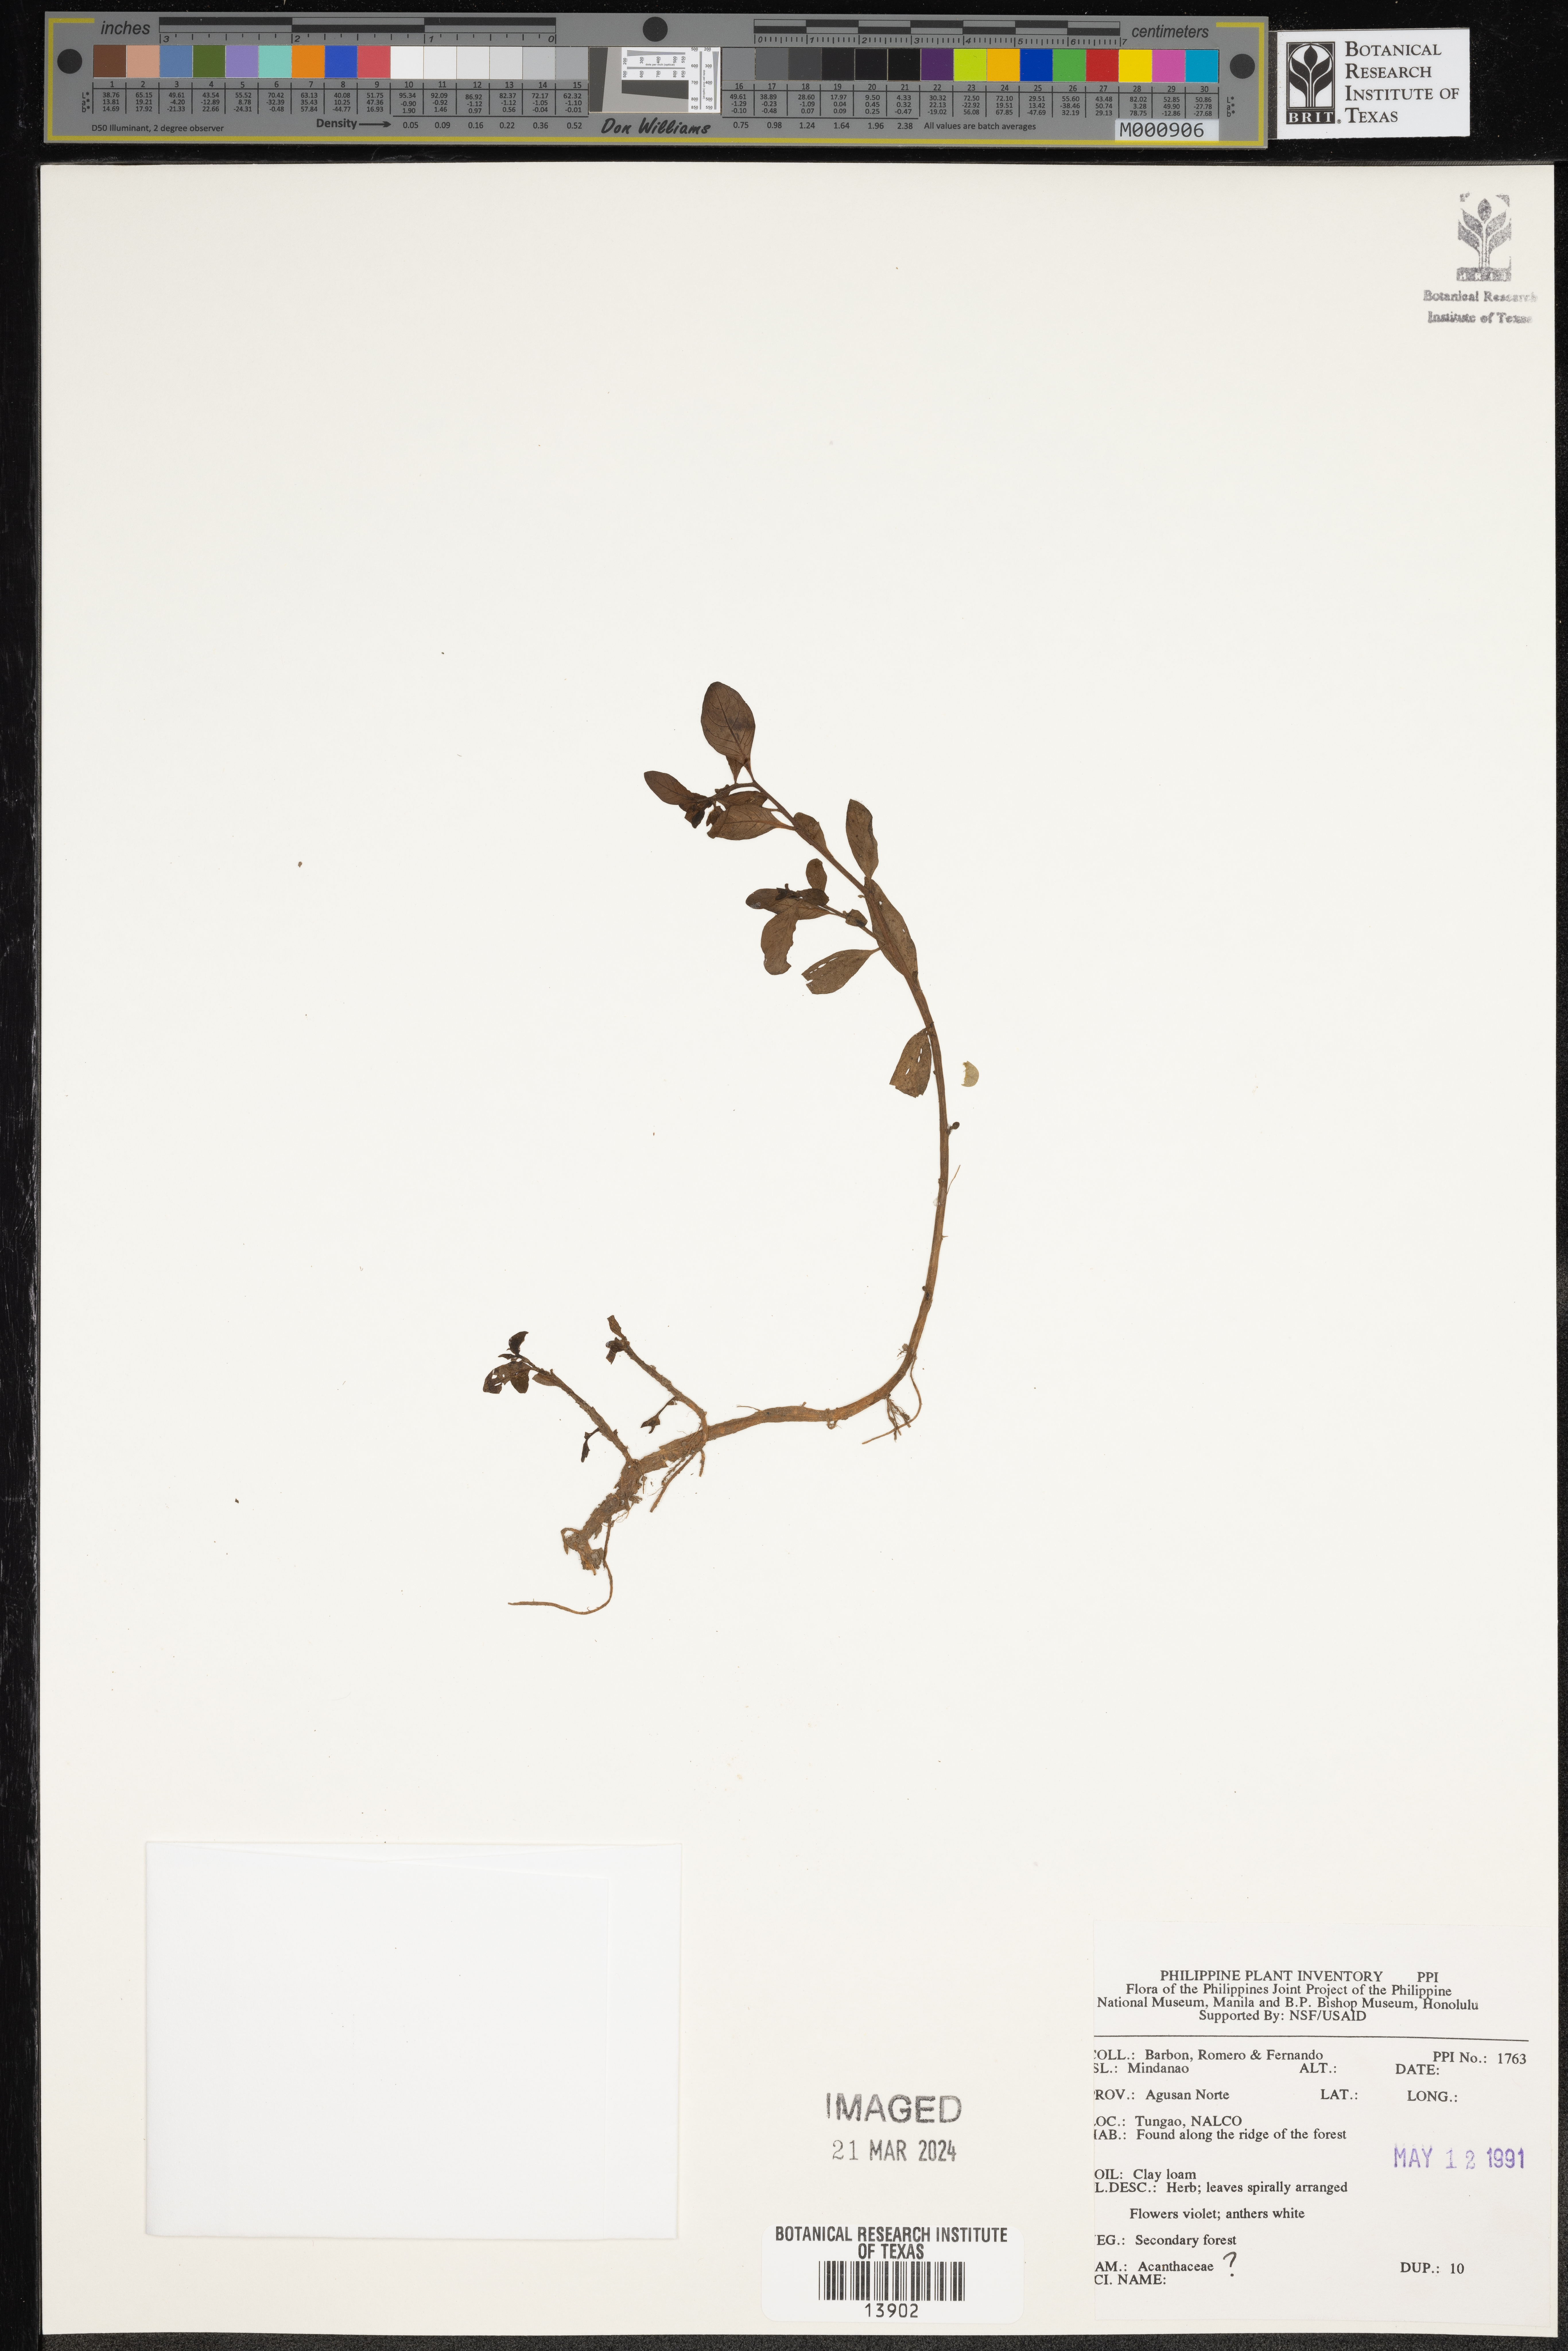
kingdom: Plantae
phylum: Tracheophyta
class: Magnoliopsida
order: Lamiales
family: Acanthaceae
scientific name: Acanthaceae
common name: Acanthaceae
